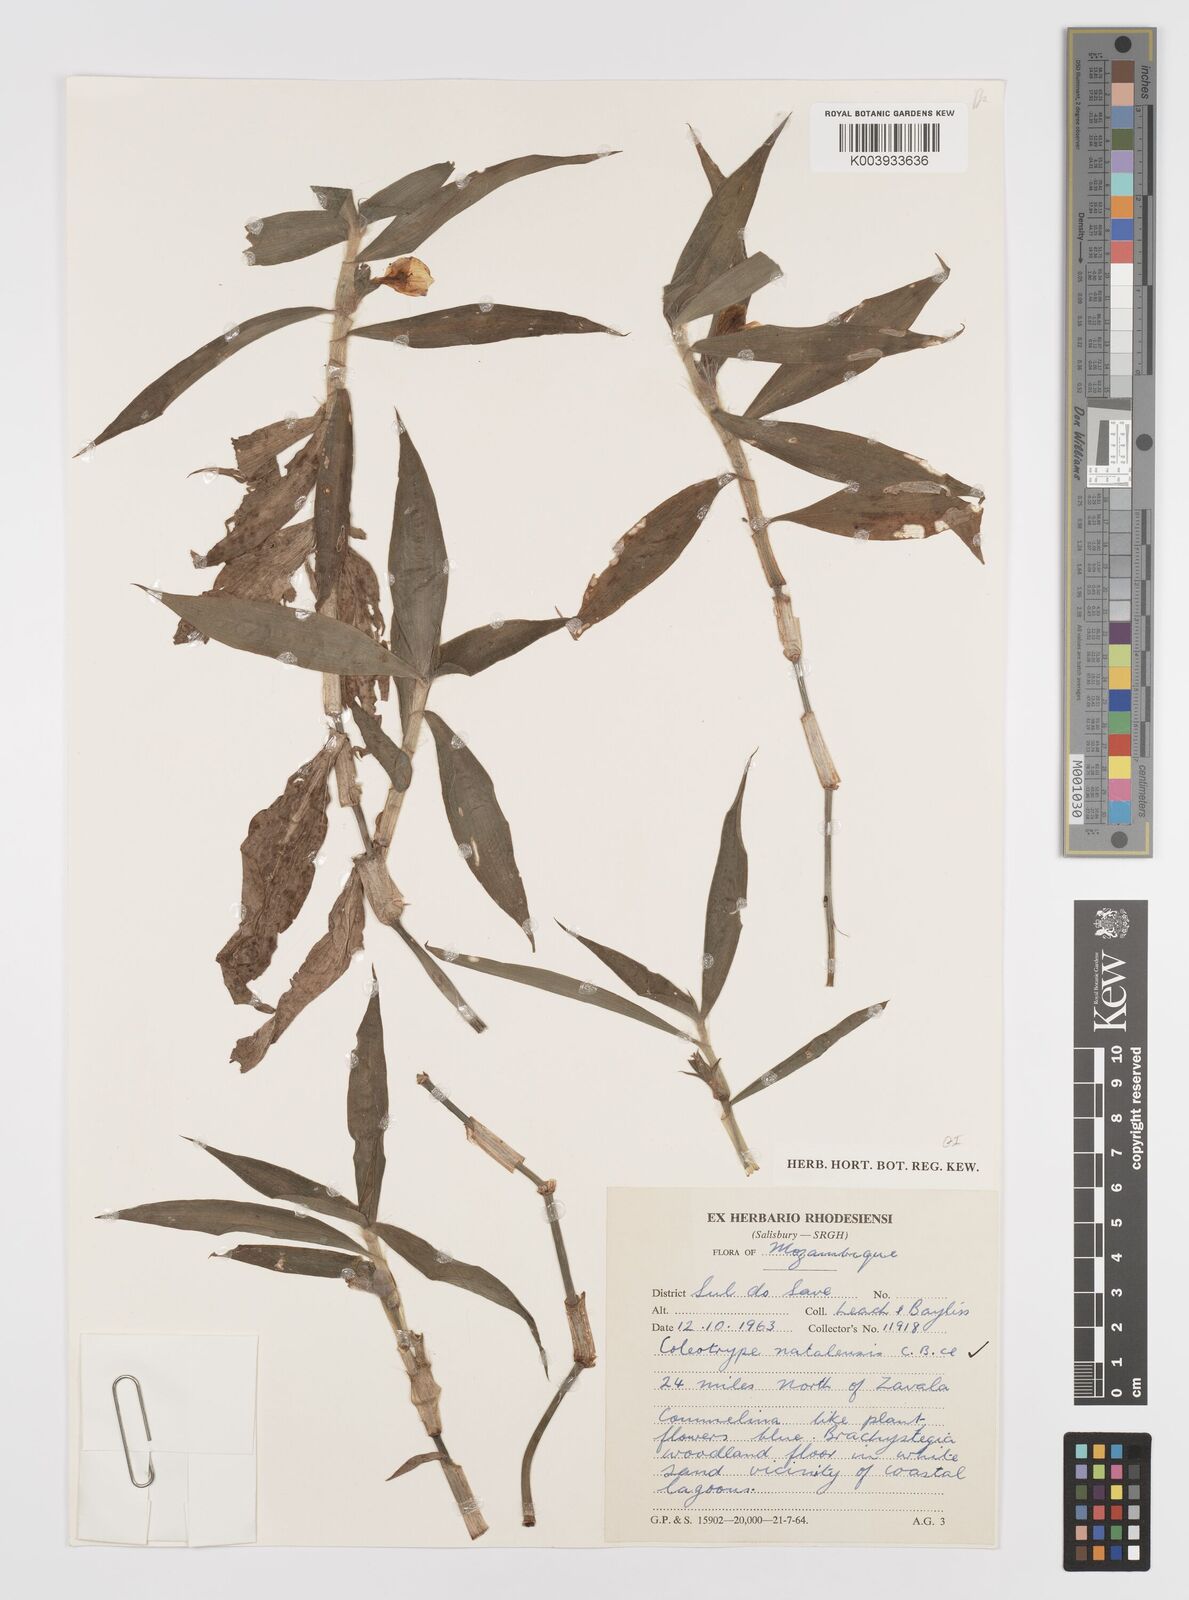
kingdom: Plantae
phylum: Tracheophyta
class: Liliopsida
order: Commelinales
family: Commelinaceae
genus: Coleotrype
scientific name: Coleotrype natalensis
